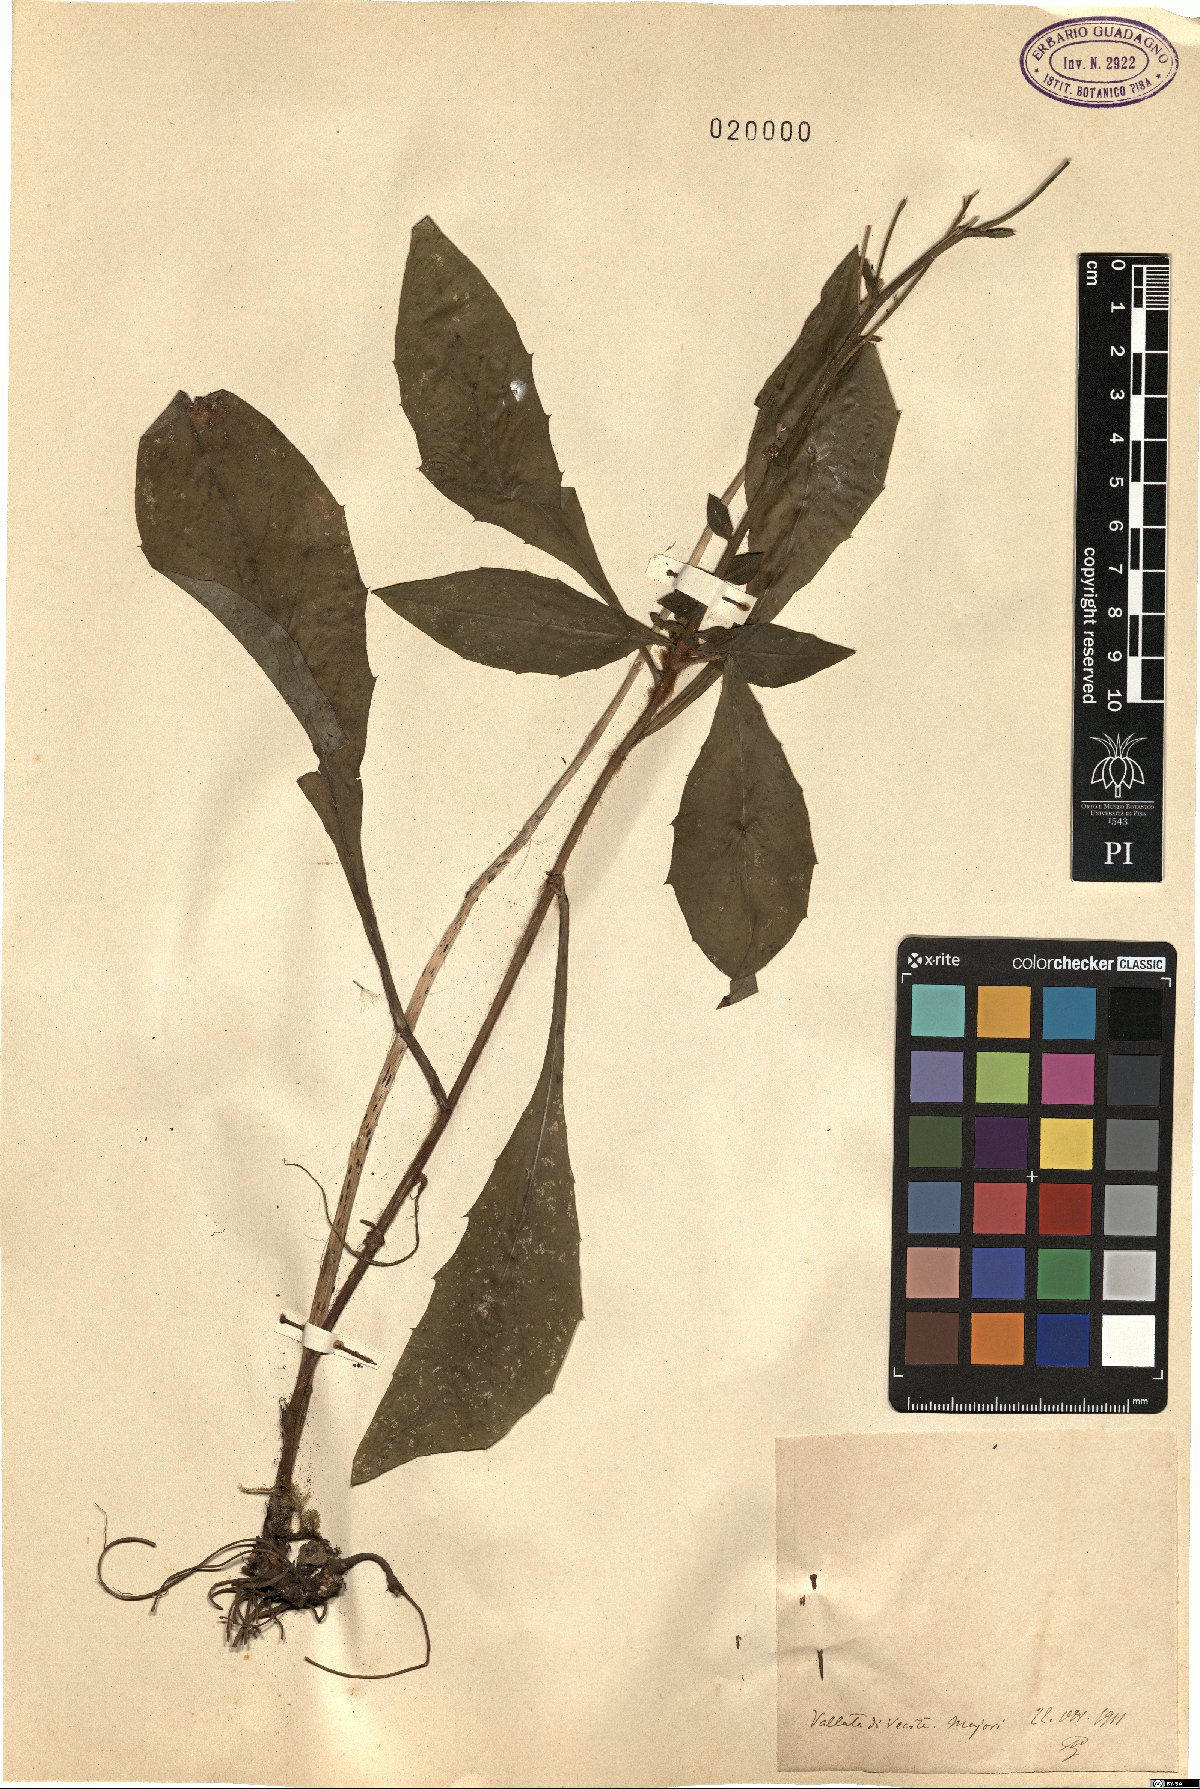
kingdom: Plantae
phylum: Tracheophyta
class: Magnoliopsida
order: Asterales
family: Asteraceae
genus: Hieracium
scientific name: Hieracium
